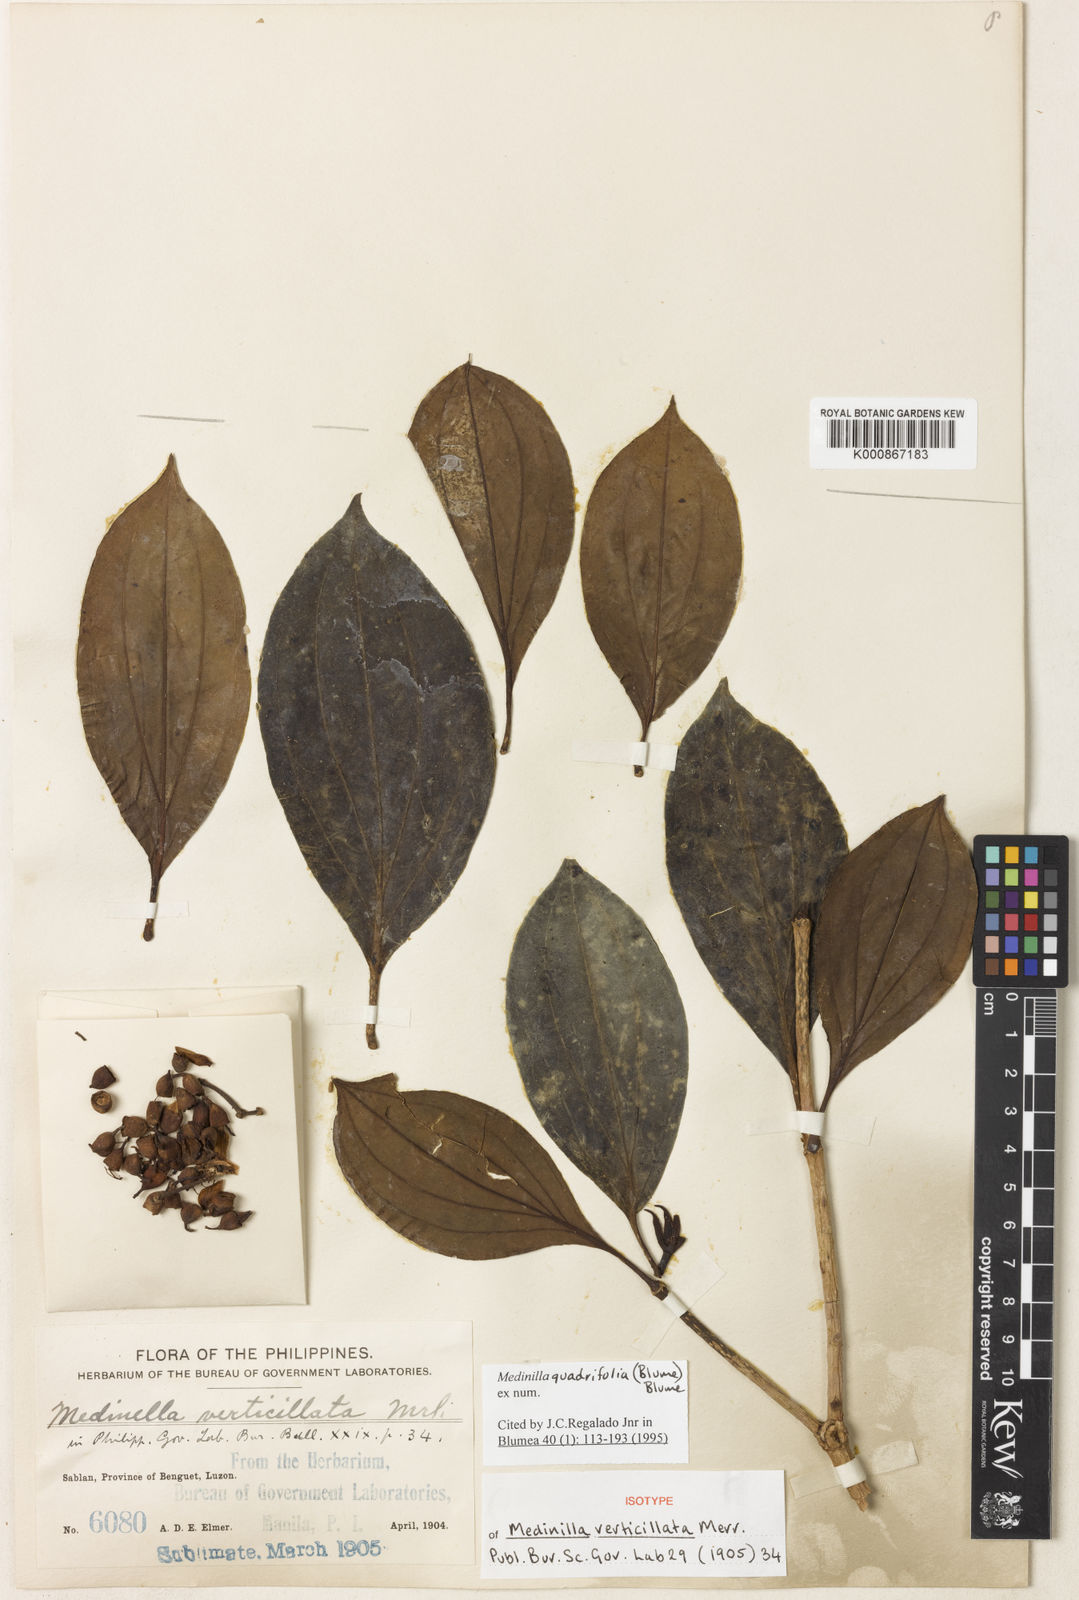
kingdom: Plantae
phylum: Tracheophyta
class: Magnoliopsida
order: Myrtales
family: Melastomataceae
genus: Medinilla
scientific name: Medinilla quadrifolia
